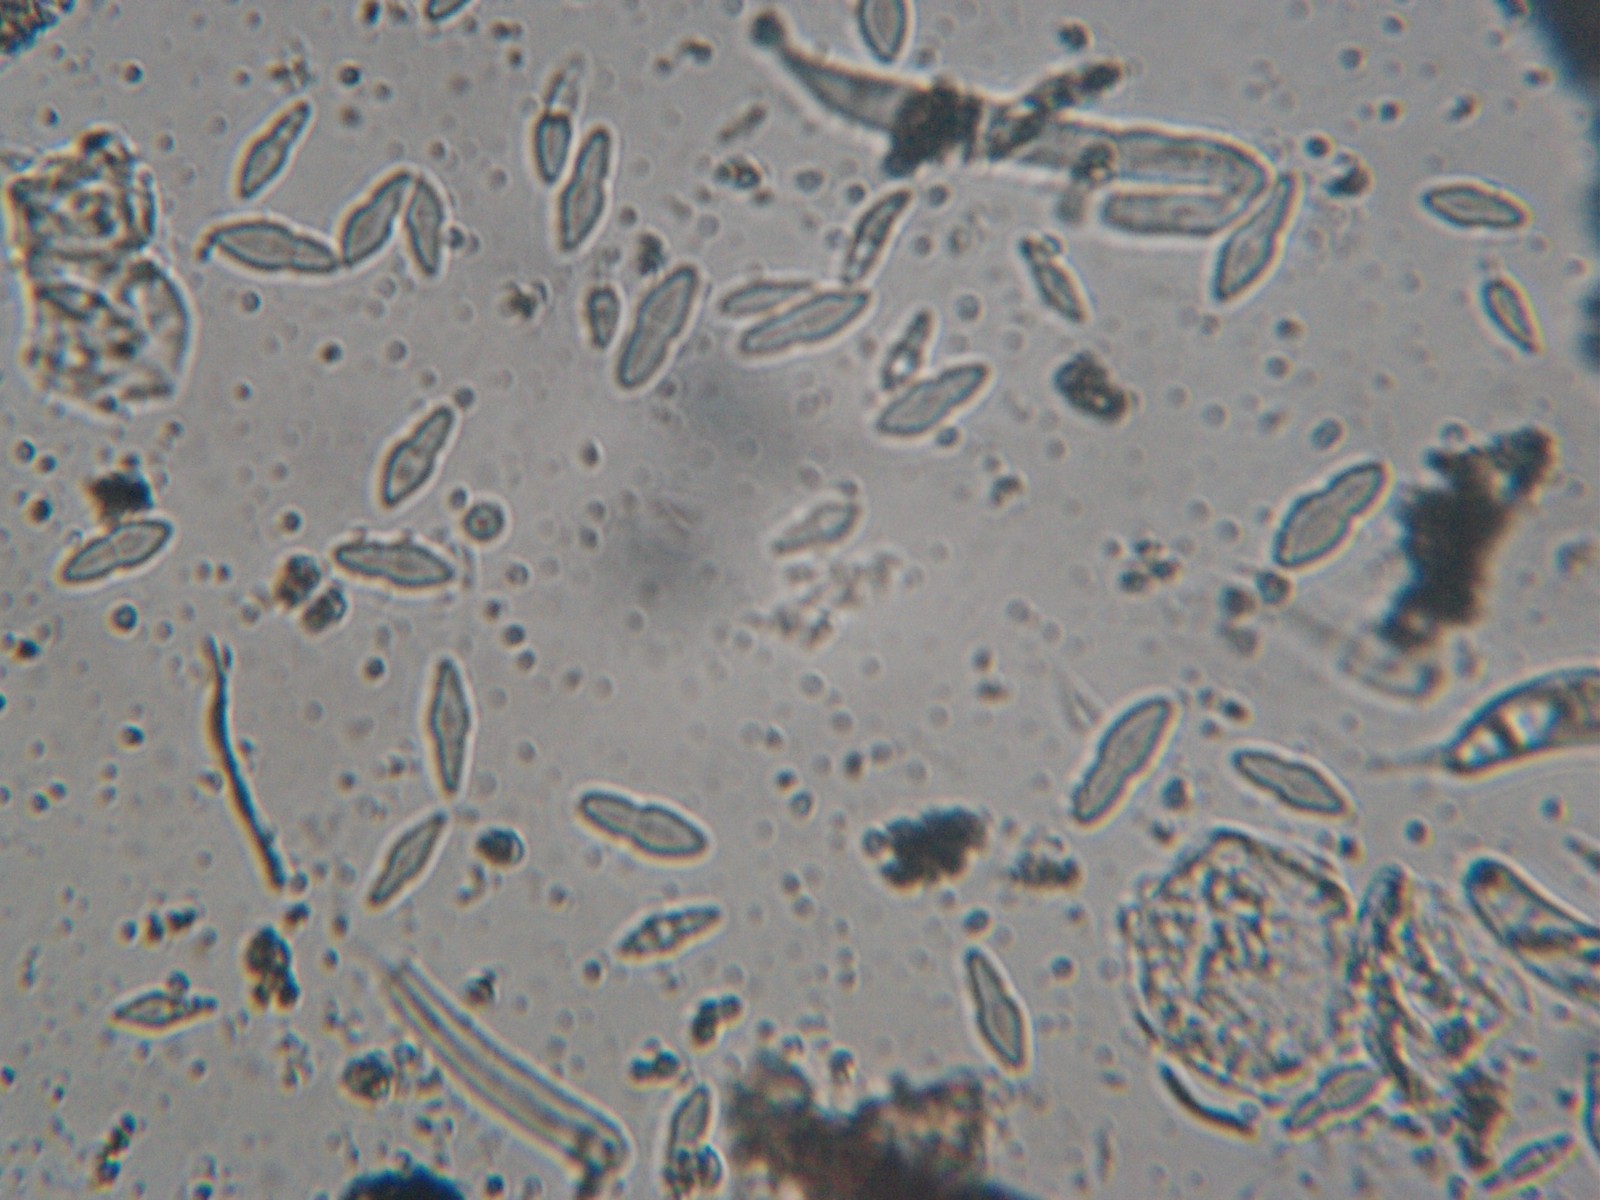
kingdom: Fungi
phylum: Ascomycota
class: Dothideomycetes
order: Botryosphaeriales
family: Botryosphaeriaceae
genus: Dothiora
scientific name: Dothiora ribesia
